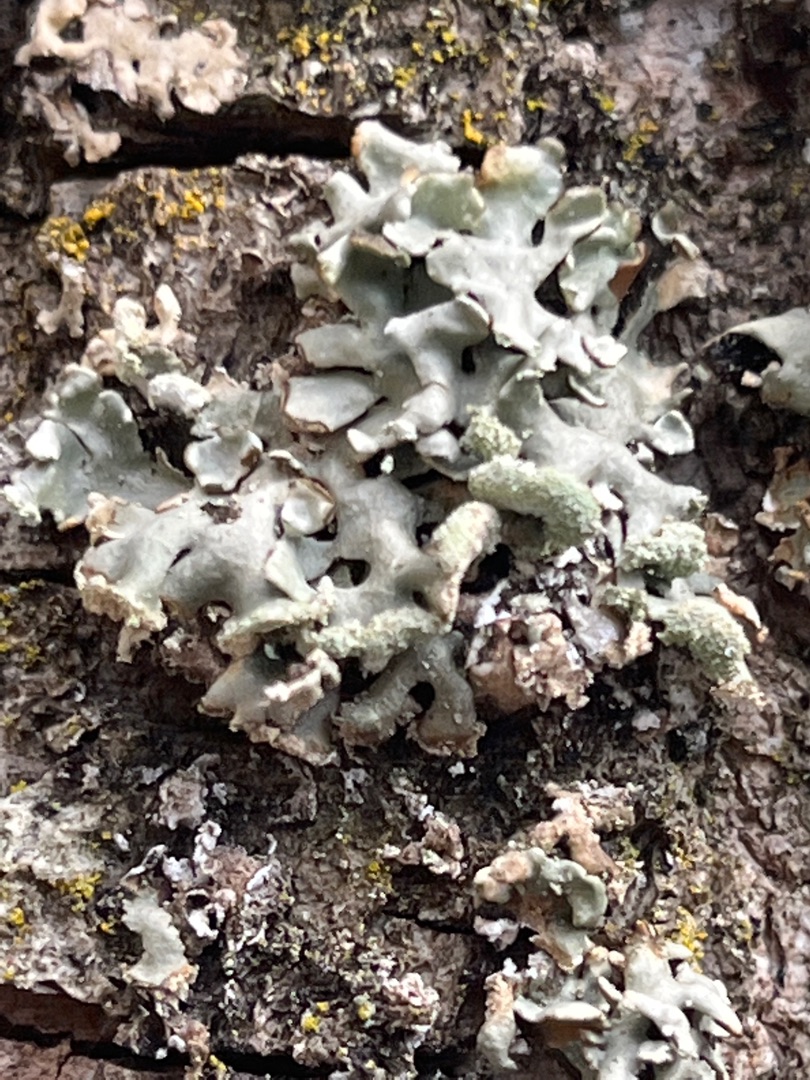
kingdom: Fungi
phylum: Ascomycota
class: Lecanoromycetes
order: Lecanorales
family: Parmeliaceae
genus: Hypogymnia
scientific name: Hypogymnia physodes
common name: Almindelig kvistlav
